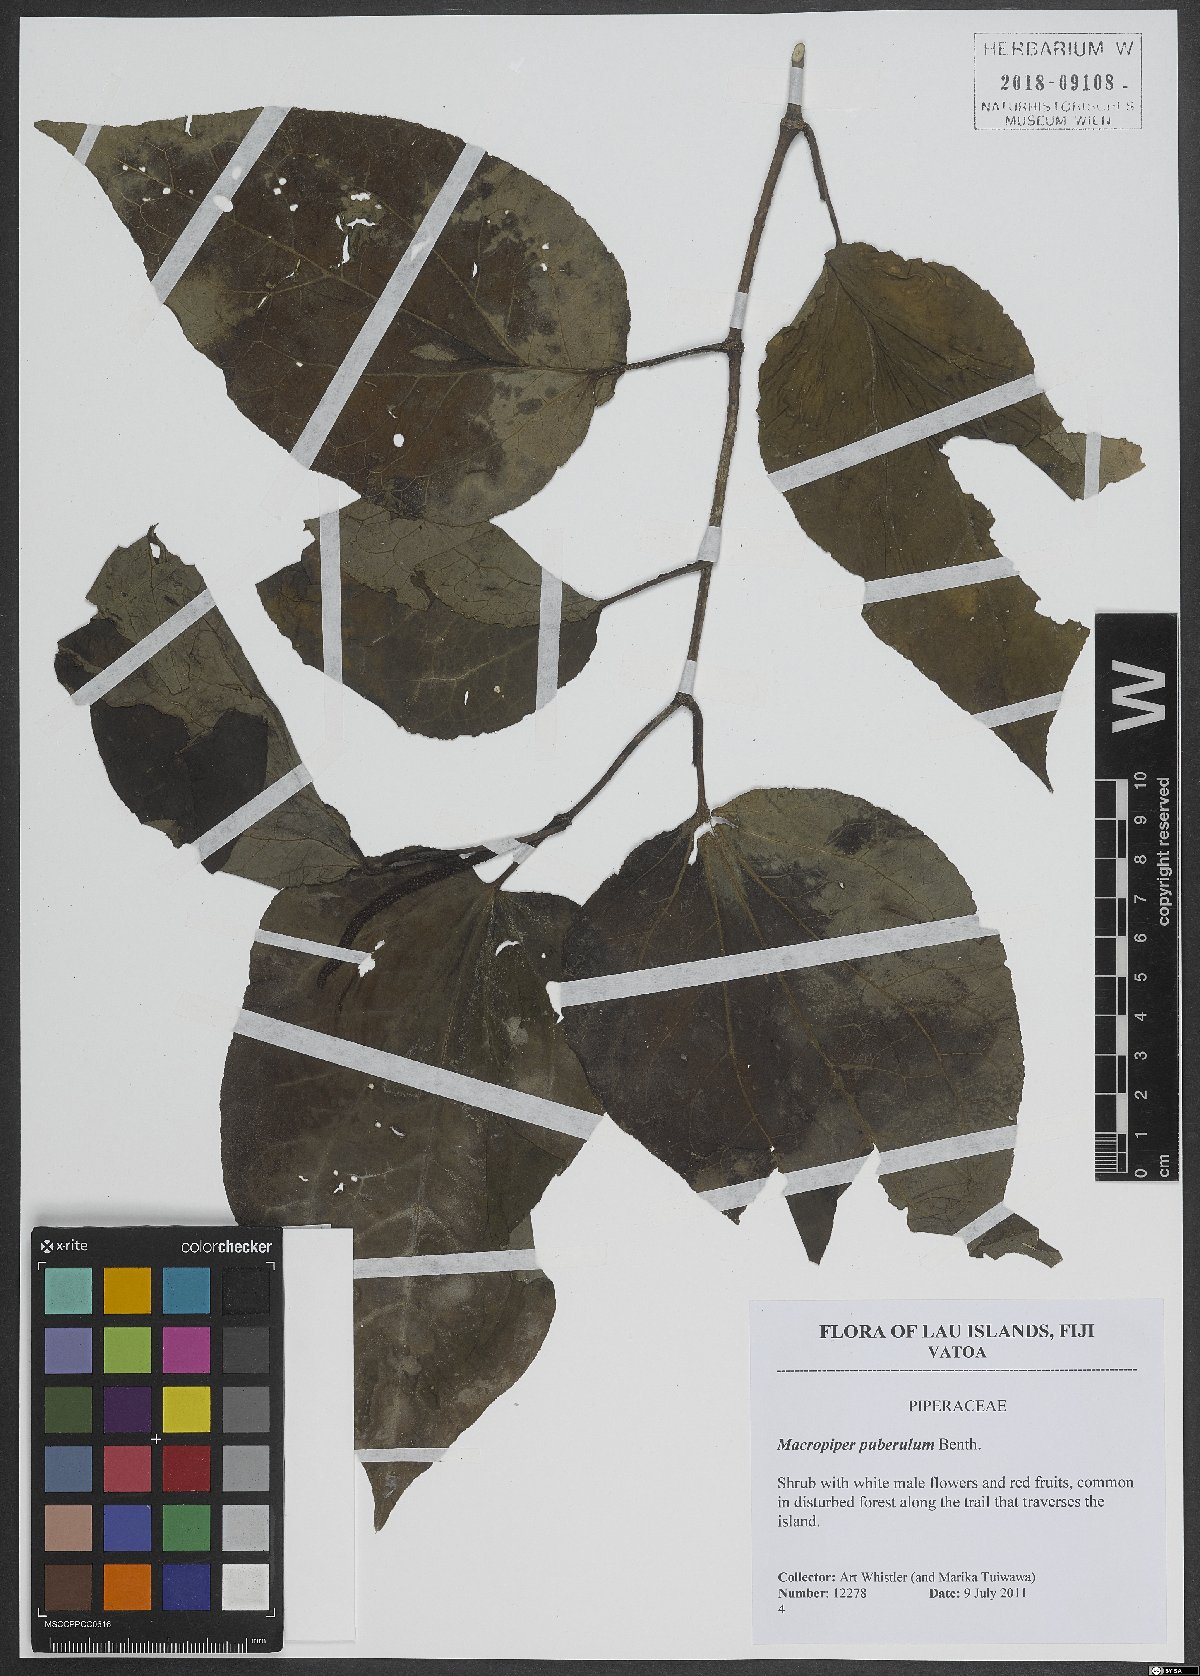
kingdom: Plantae
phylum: Tracheophyta
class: Magnoliopsida
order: Piperales
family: Piperaceae
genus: Macropiper
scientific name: Macropiper puberulum
